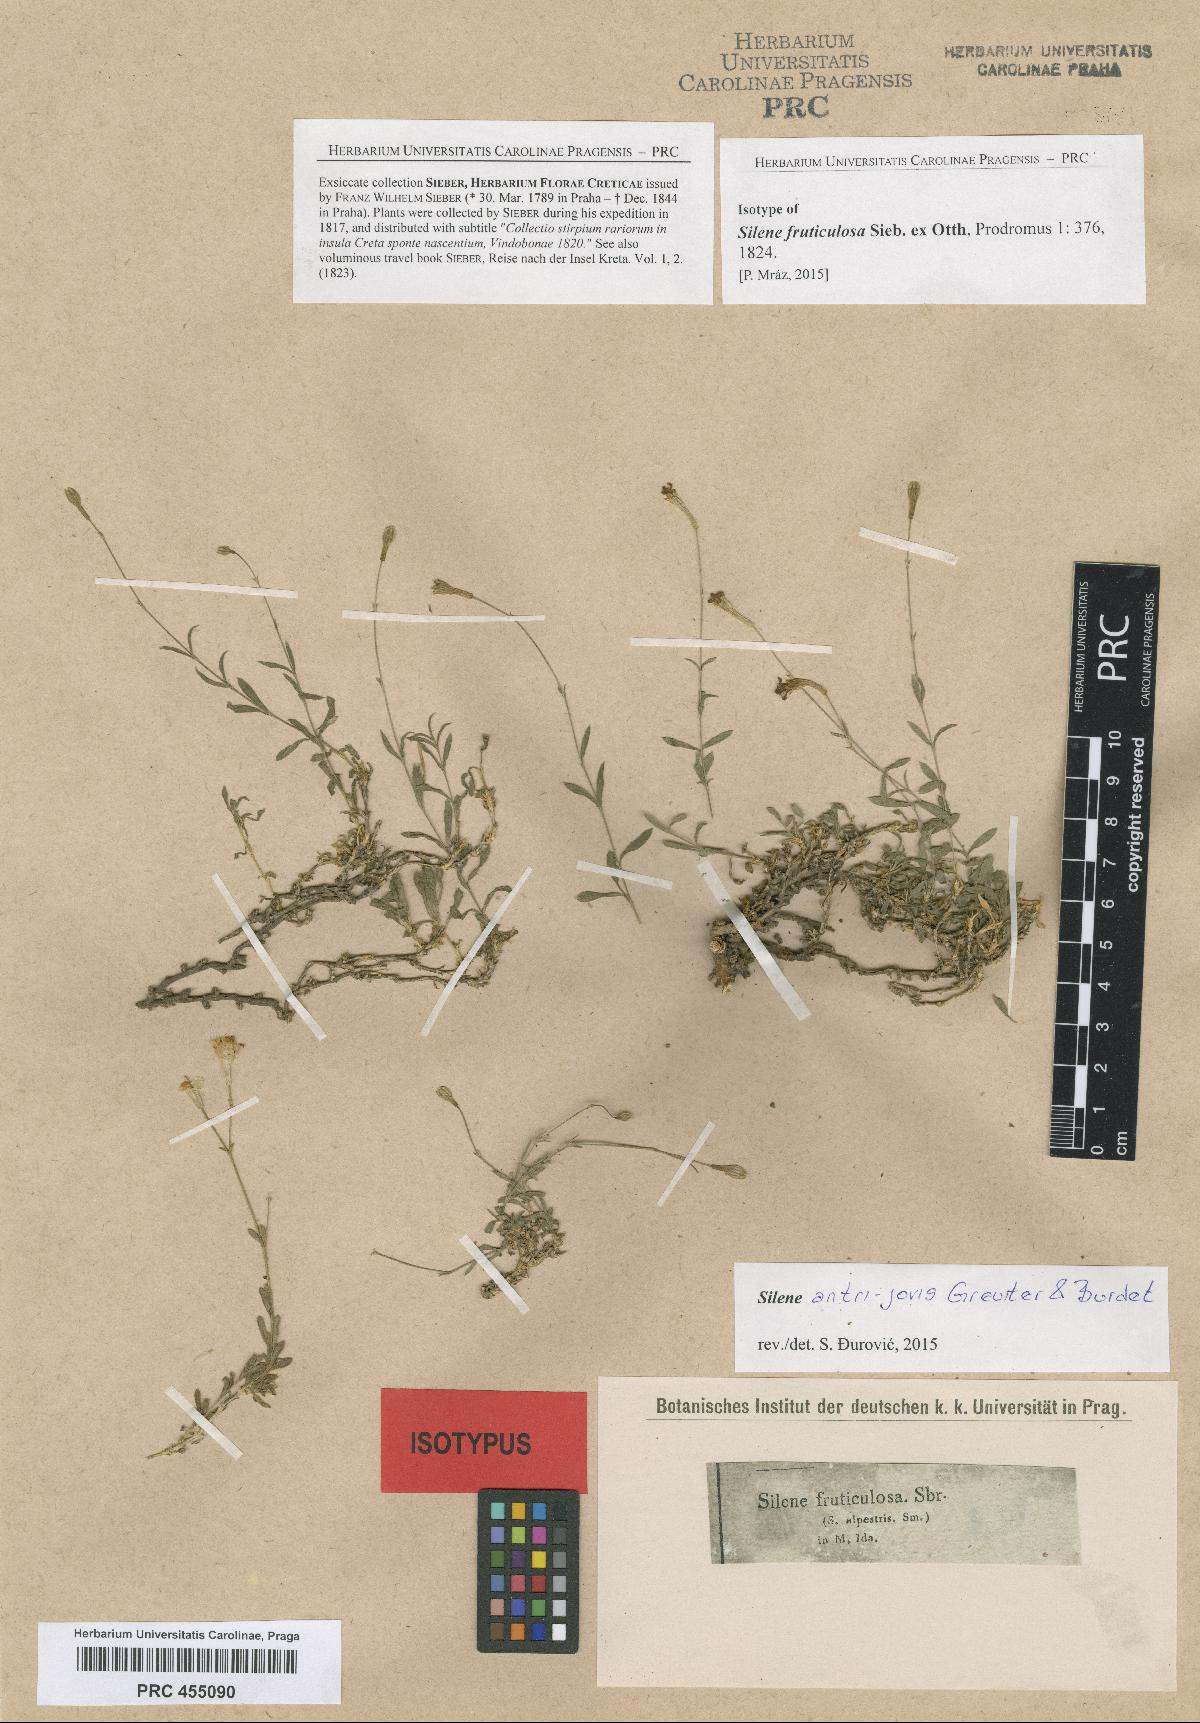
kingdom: Plantae
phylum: Tracheophyta
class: Magnoliopsida
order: Caryophyllales
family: Caryophyllaceae
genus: Silene
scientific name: Silene antri-jovis
